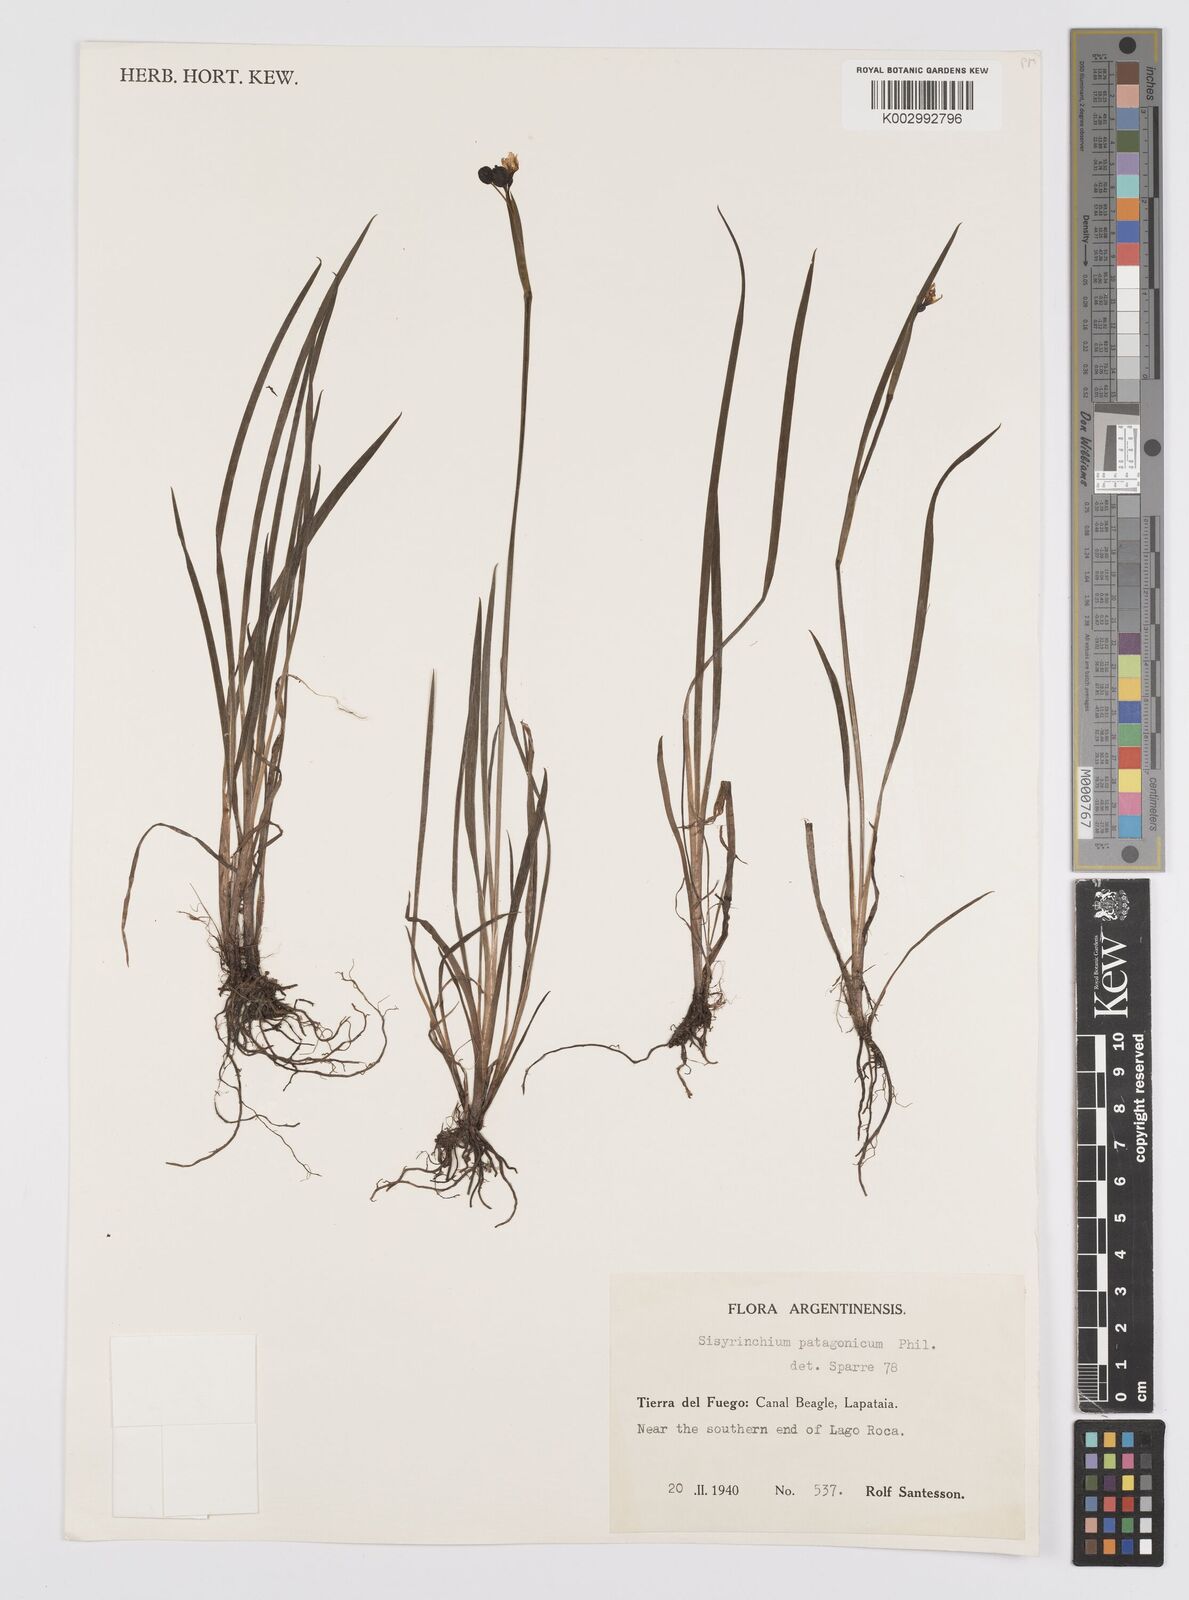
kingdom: Plantae
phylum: Tracheophyta
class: Liliopsida
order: Asparagales
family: Iridaceae
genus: Sisyrinchium
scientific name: Sisyrinchium patagonicum
